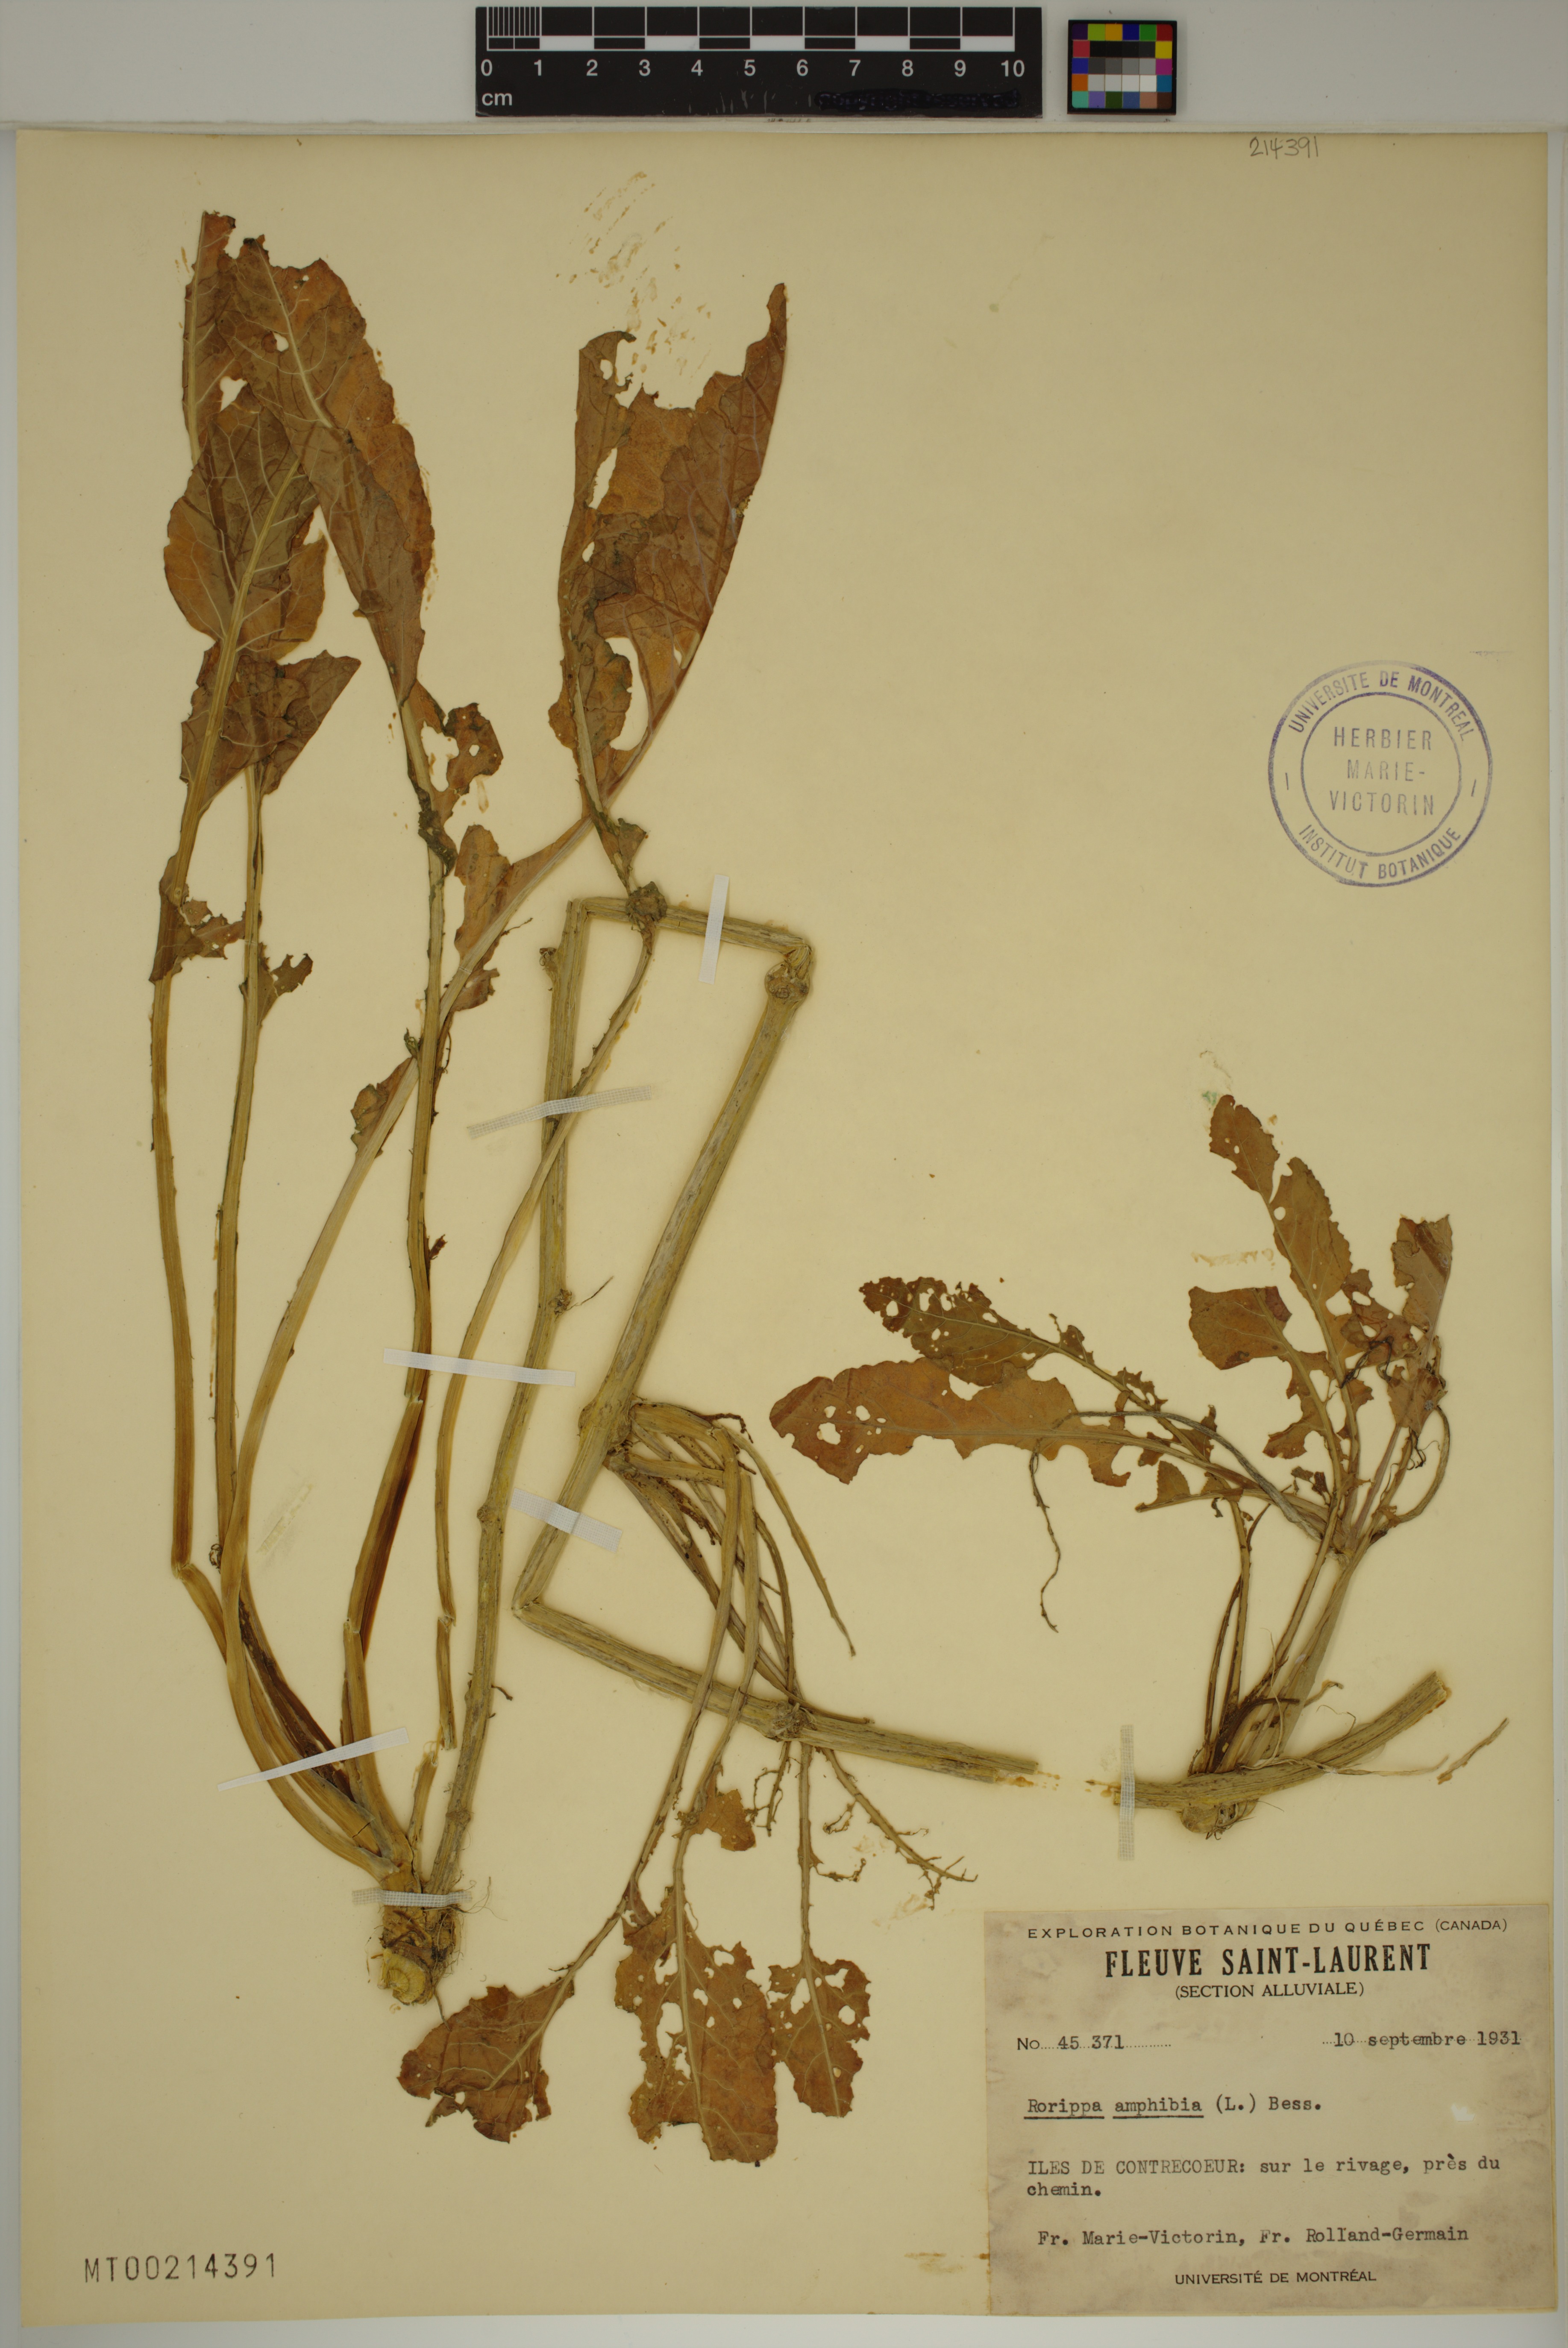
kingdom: Plantae
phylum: Tracheophyta
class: Magnoliopsida
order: Brassicales
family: Brassicaceae
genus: Rorippa
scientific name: Rorippa amphibia
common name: Great yellow-cress
